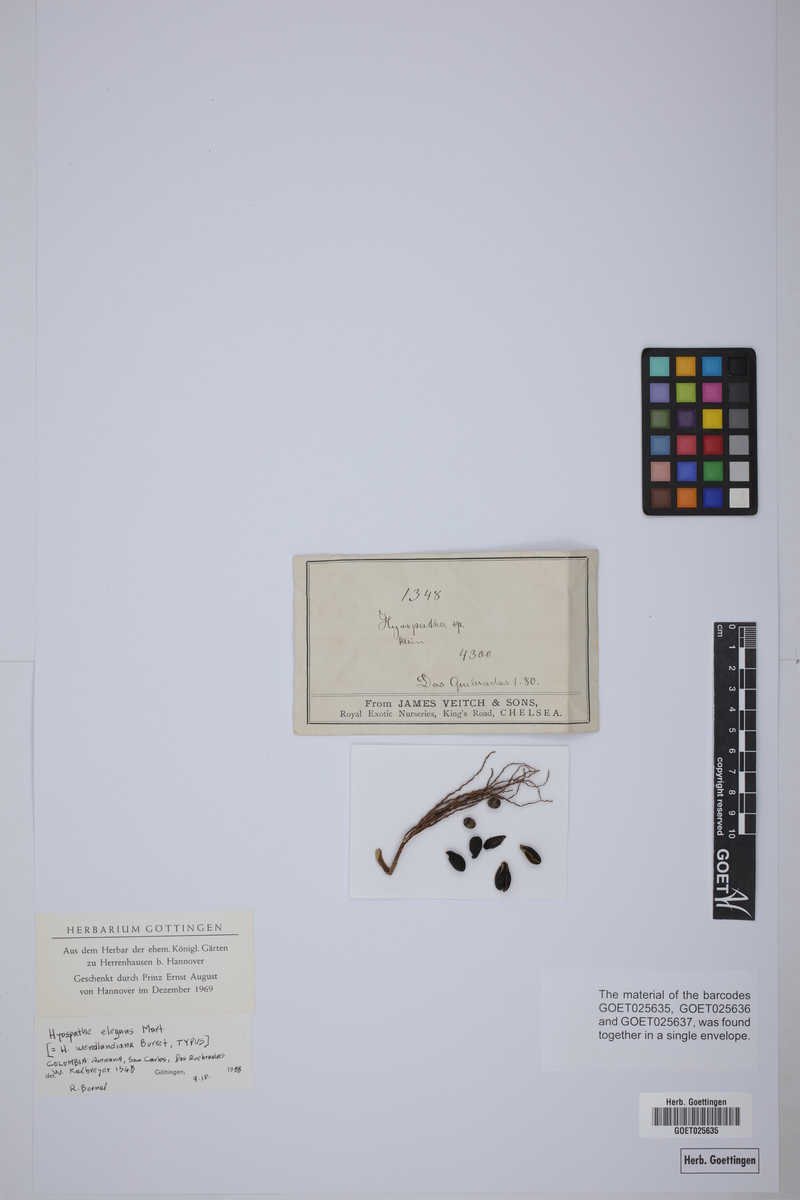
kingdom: Plantae
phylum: Tracheophyta
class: Liliopsida
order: Arecales
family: Arecaceae
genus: Hyospathe
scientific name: Hyospathe elegans
